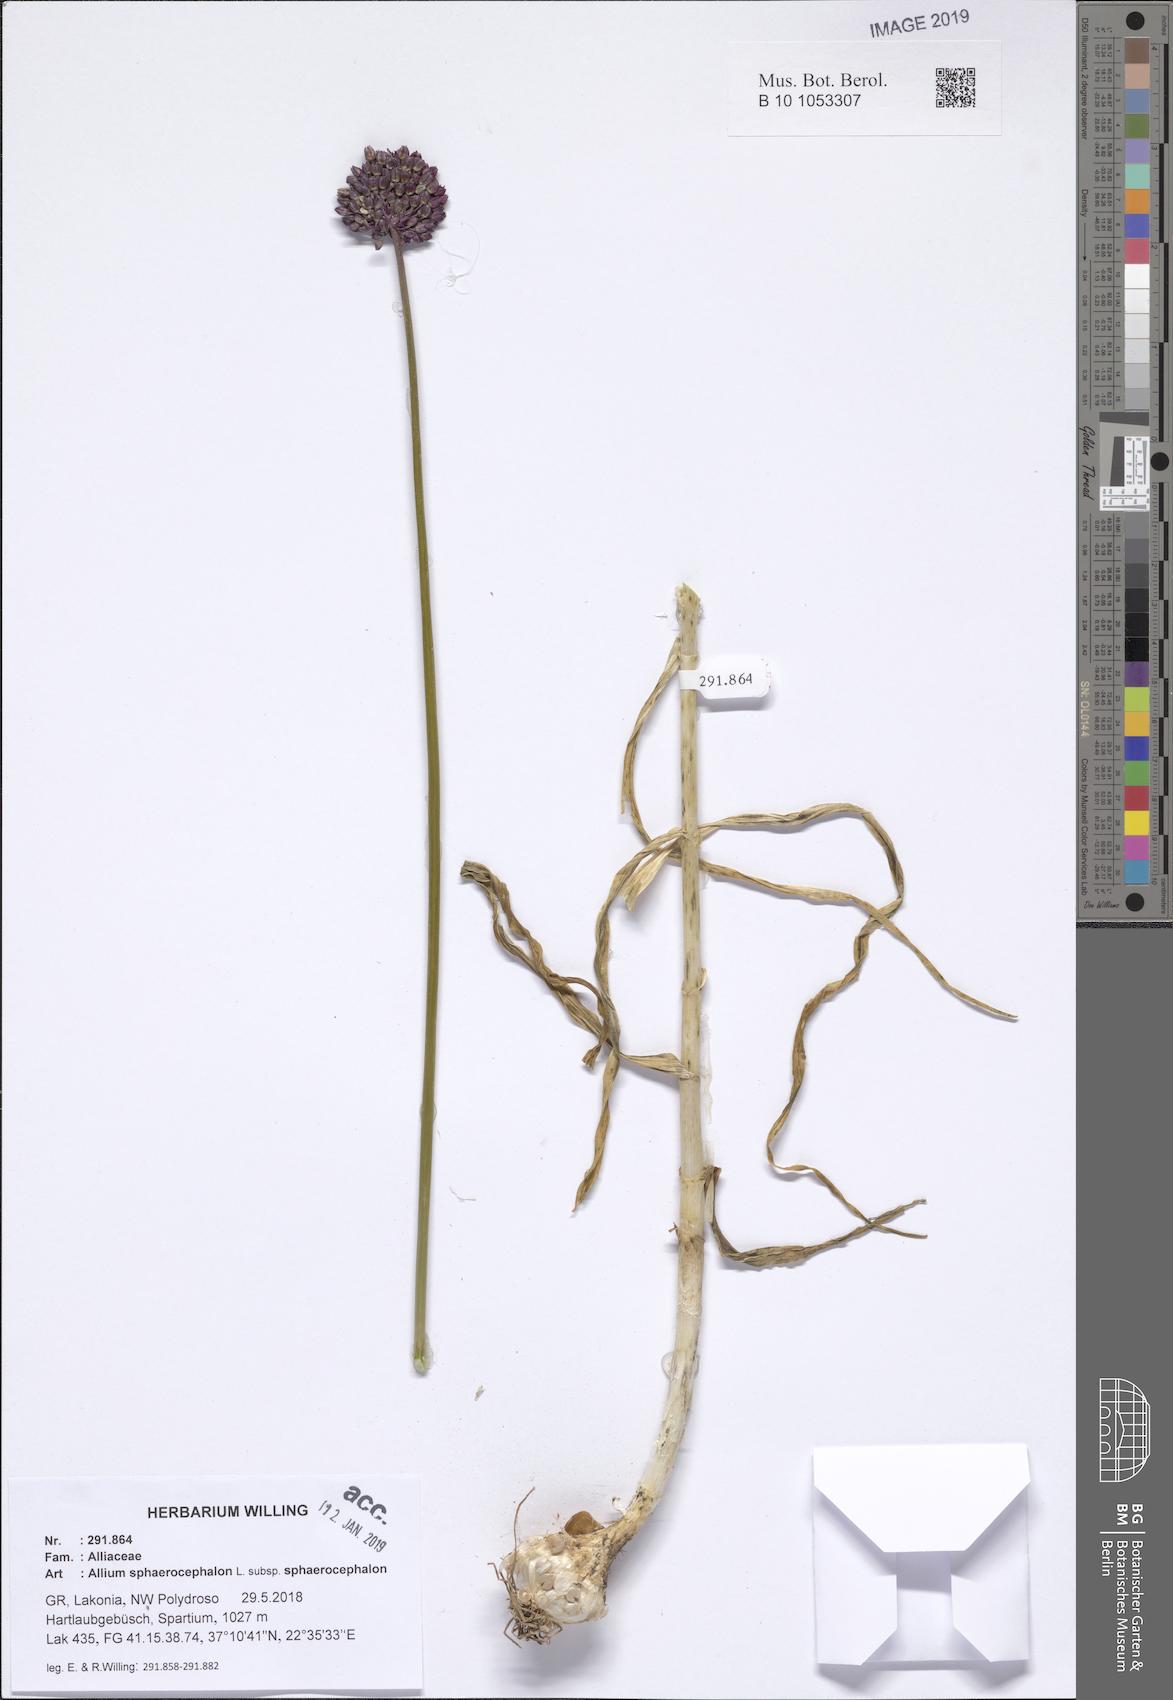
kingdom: Plantae
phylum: Tracheophyta
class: Liliopsida
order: Asparagales
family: Amaryllidaceae
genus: Allium
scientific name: Allium sphaerocephalon
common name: Round-headed leek
